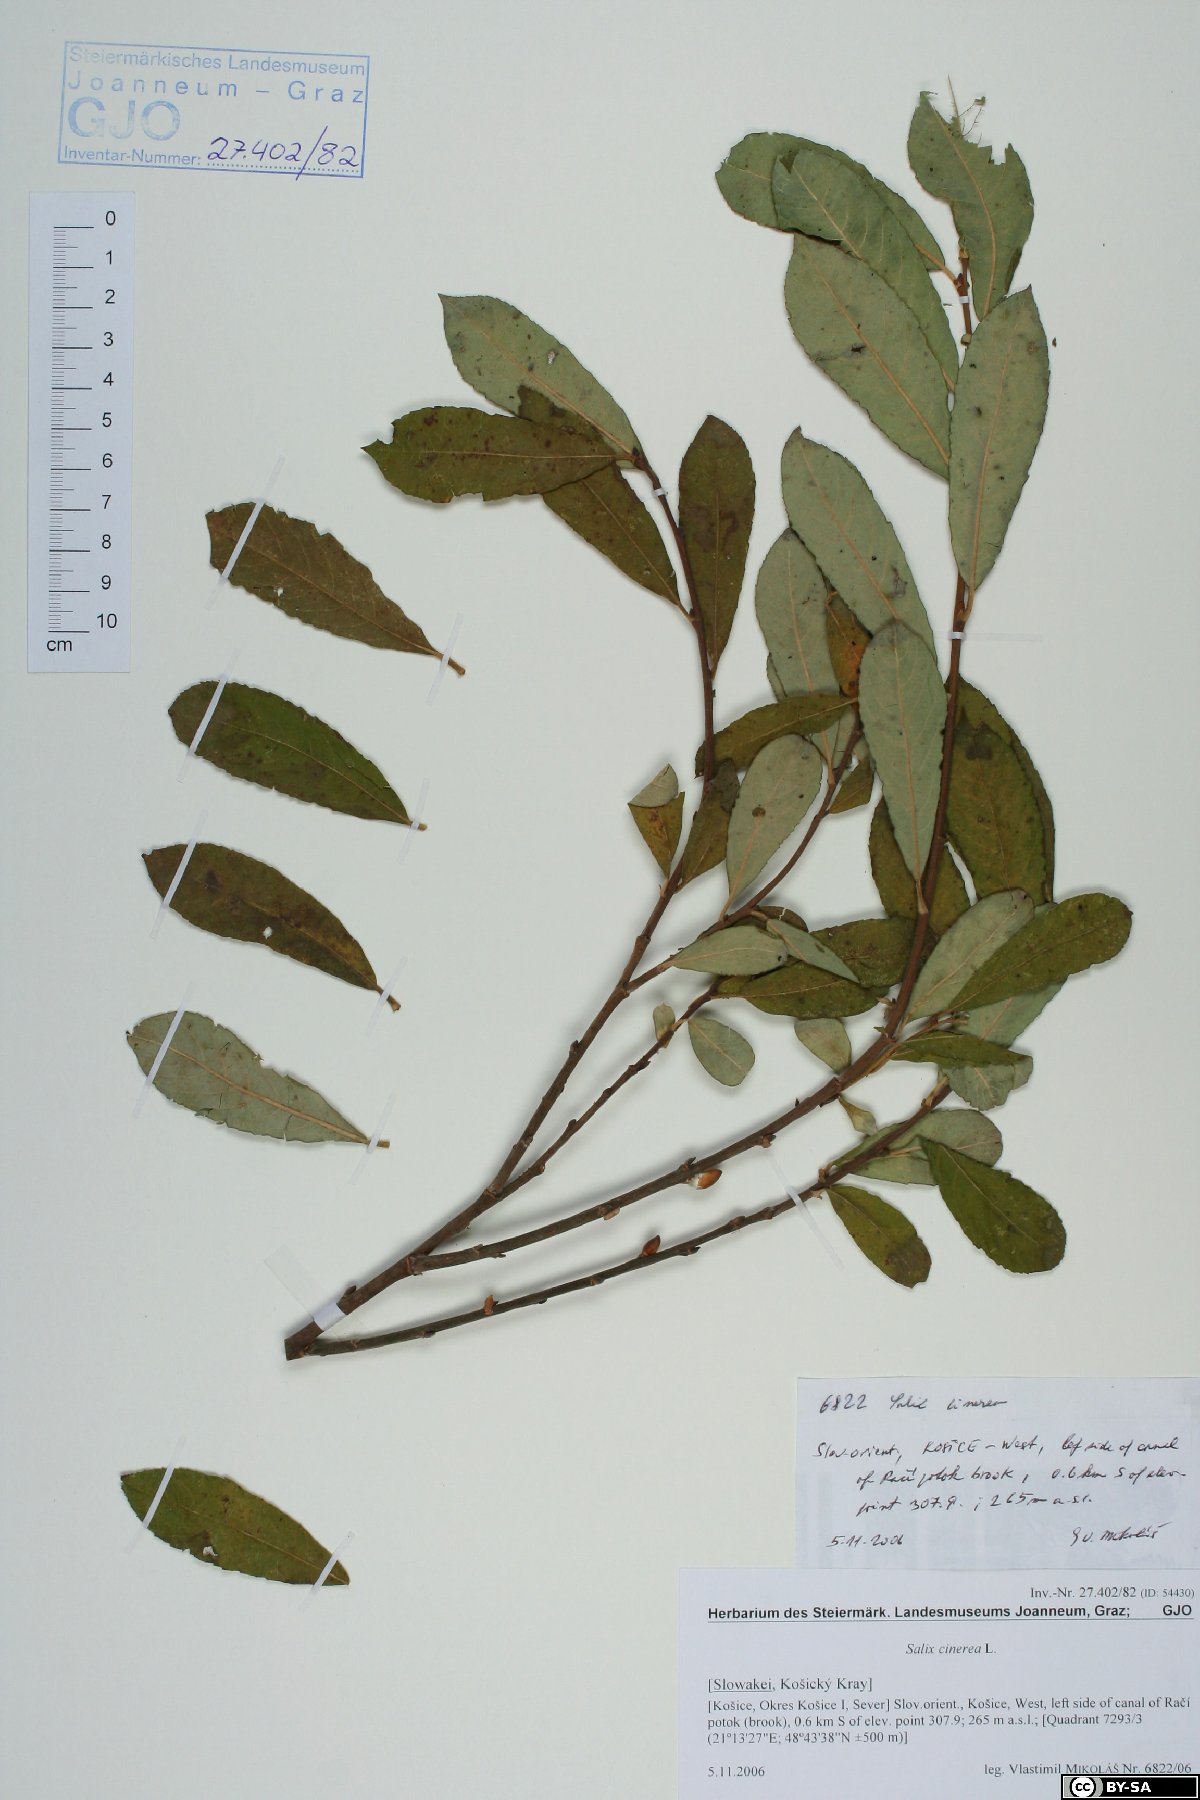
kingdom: Plantae
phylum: Tracheophyta
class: Magnoliopsida
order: Malpighiales
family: Salicaceae
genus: Salix
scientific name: Salix cinerea
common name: Common sallow
